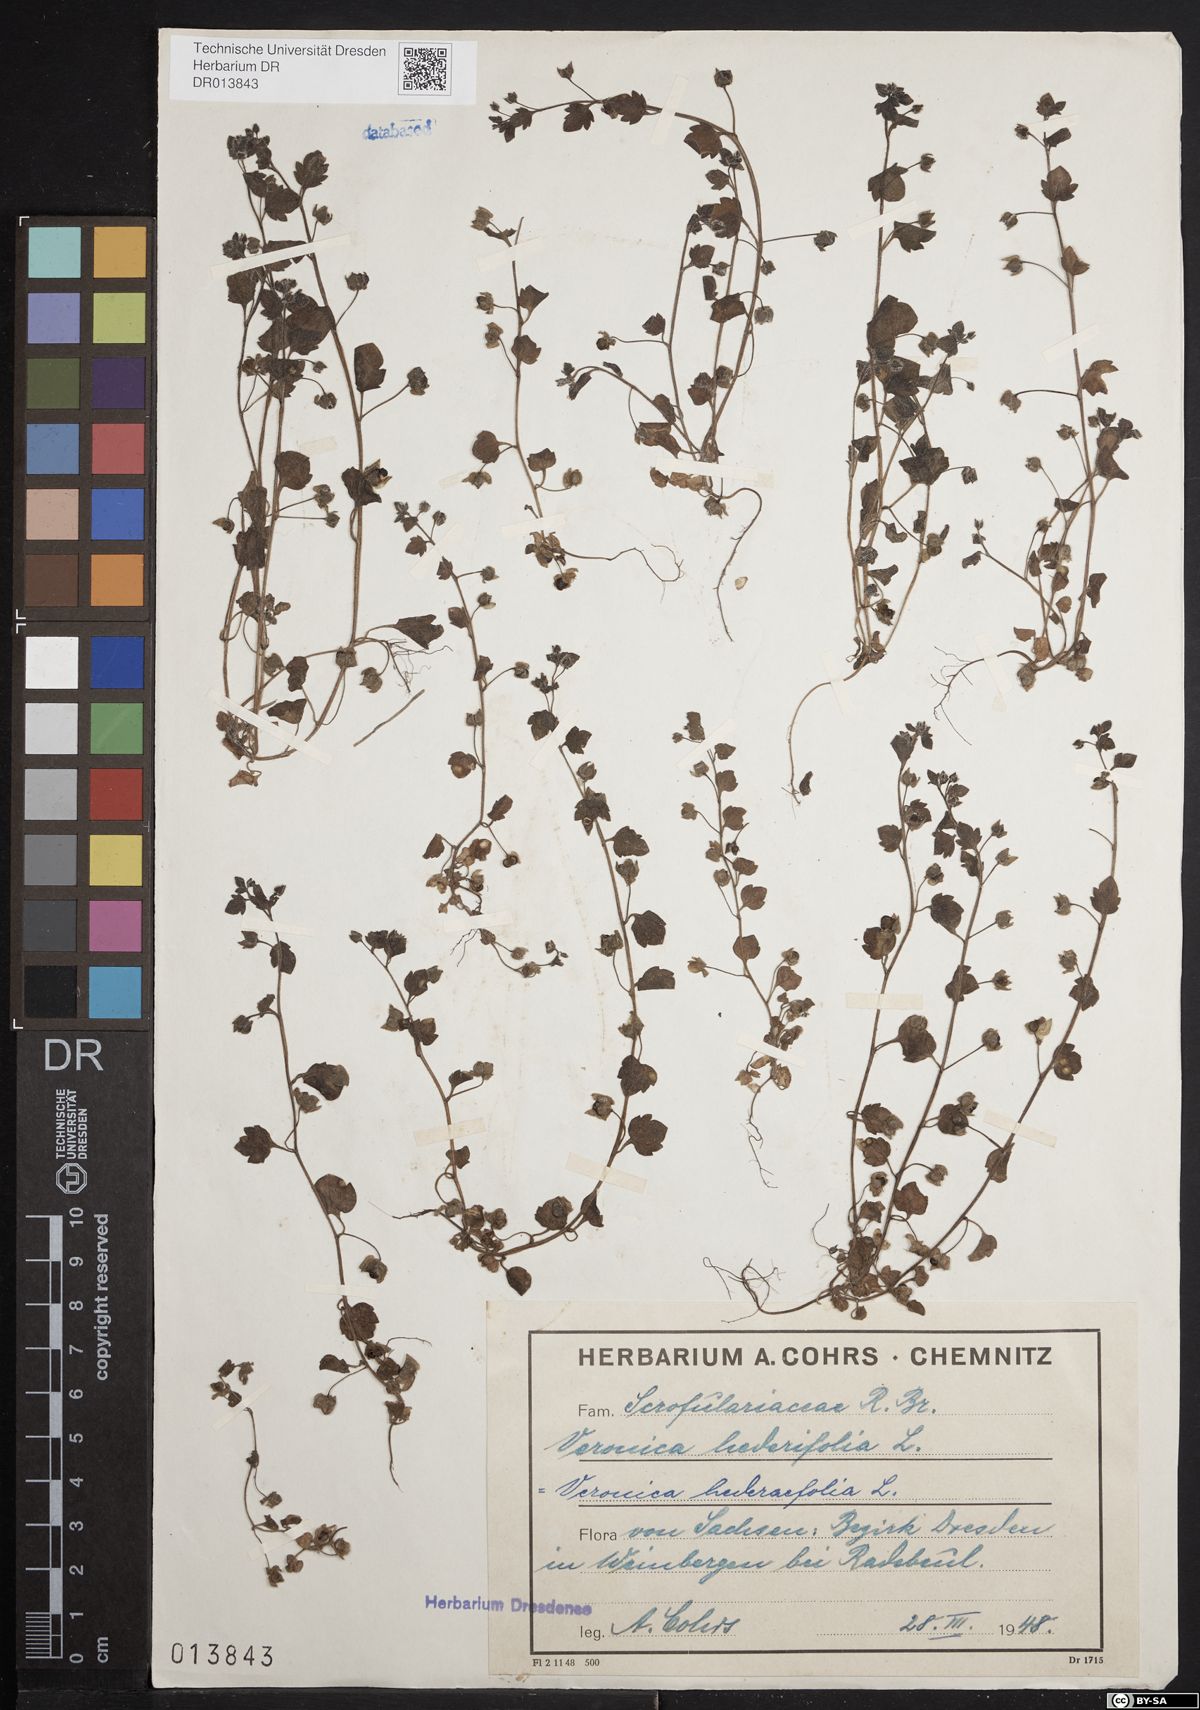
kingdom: Plantae
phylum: Tracheophyta
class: Magnoliopsida
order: Lamiales
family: Plantaginaceae
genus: Veronica
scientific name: Veronica hederifolia
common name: Ivy-leaved speedwell
